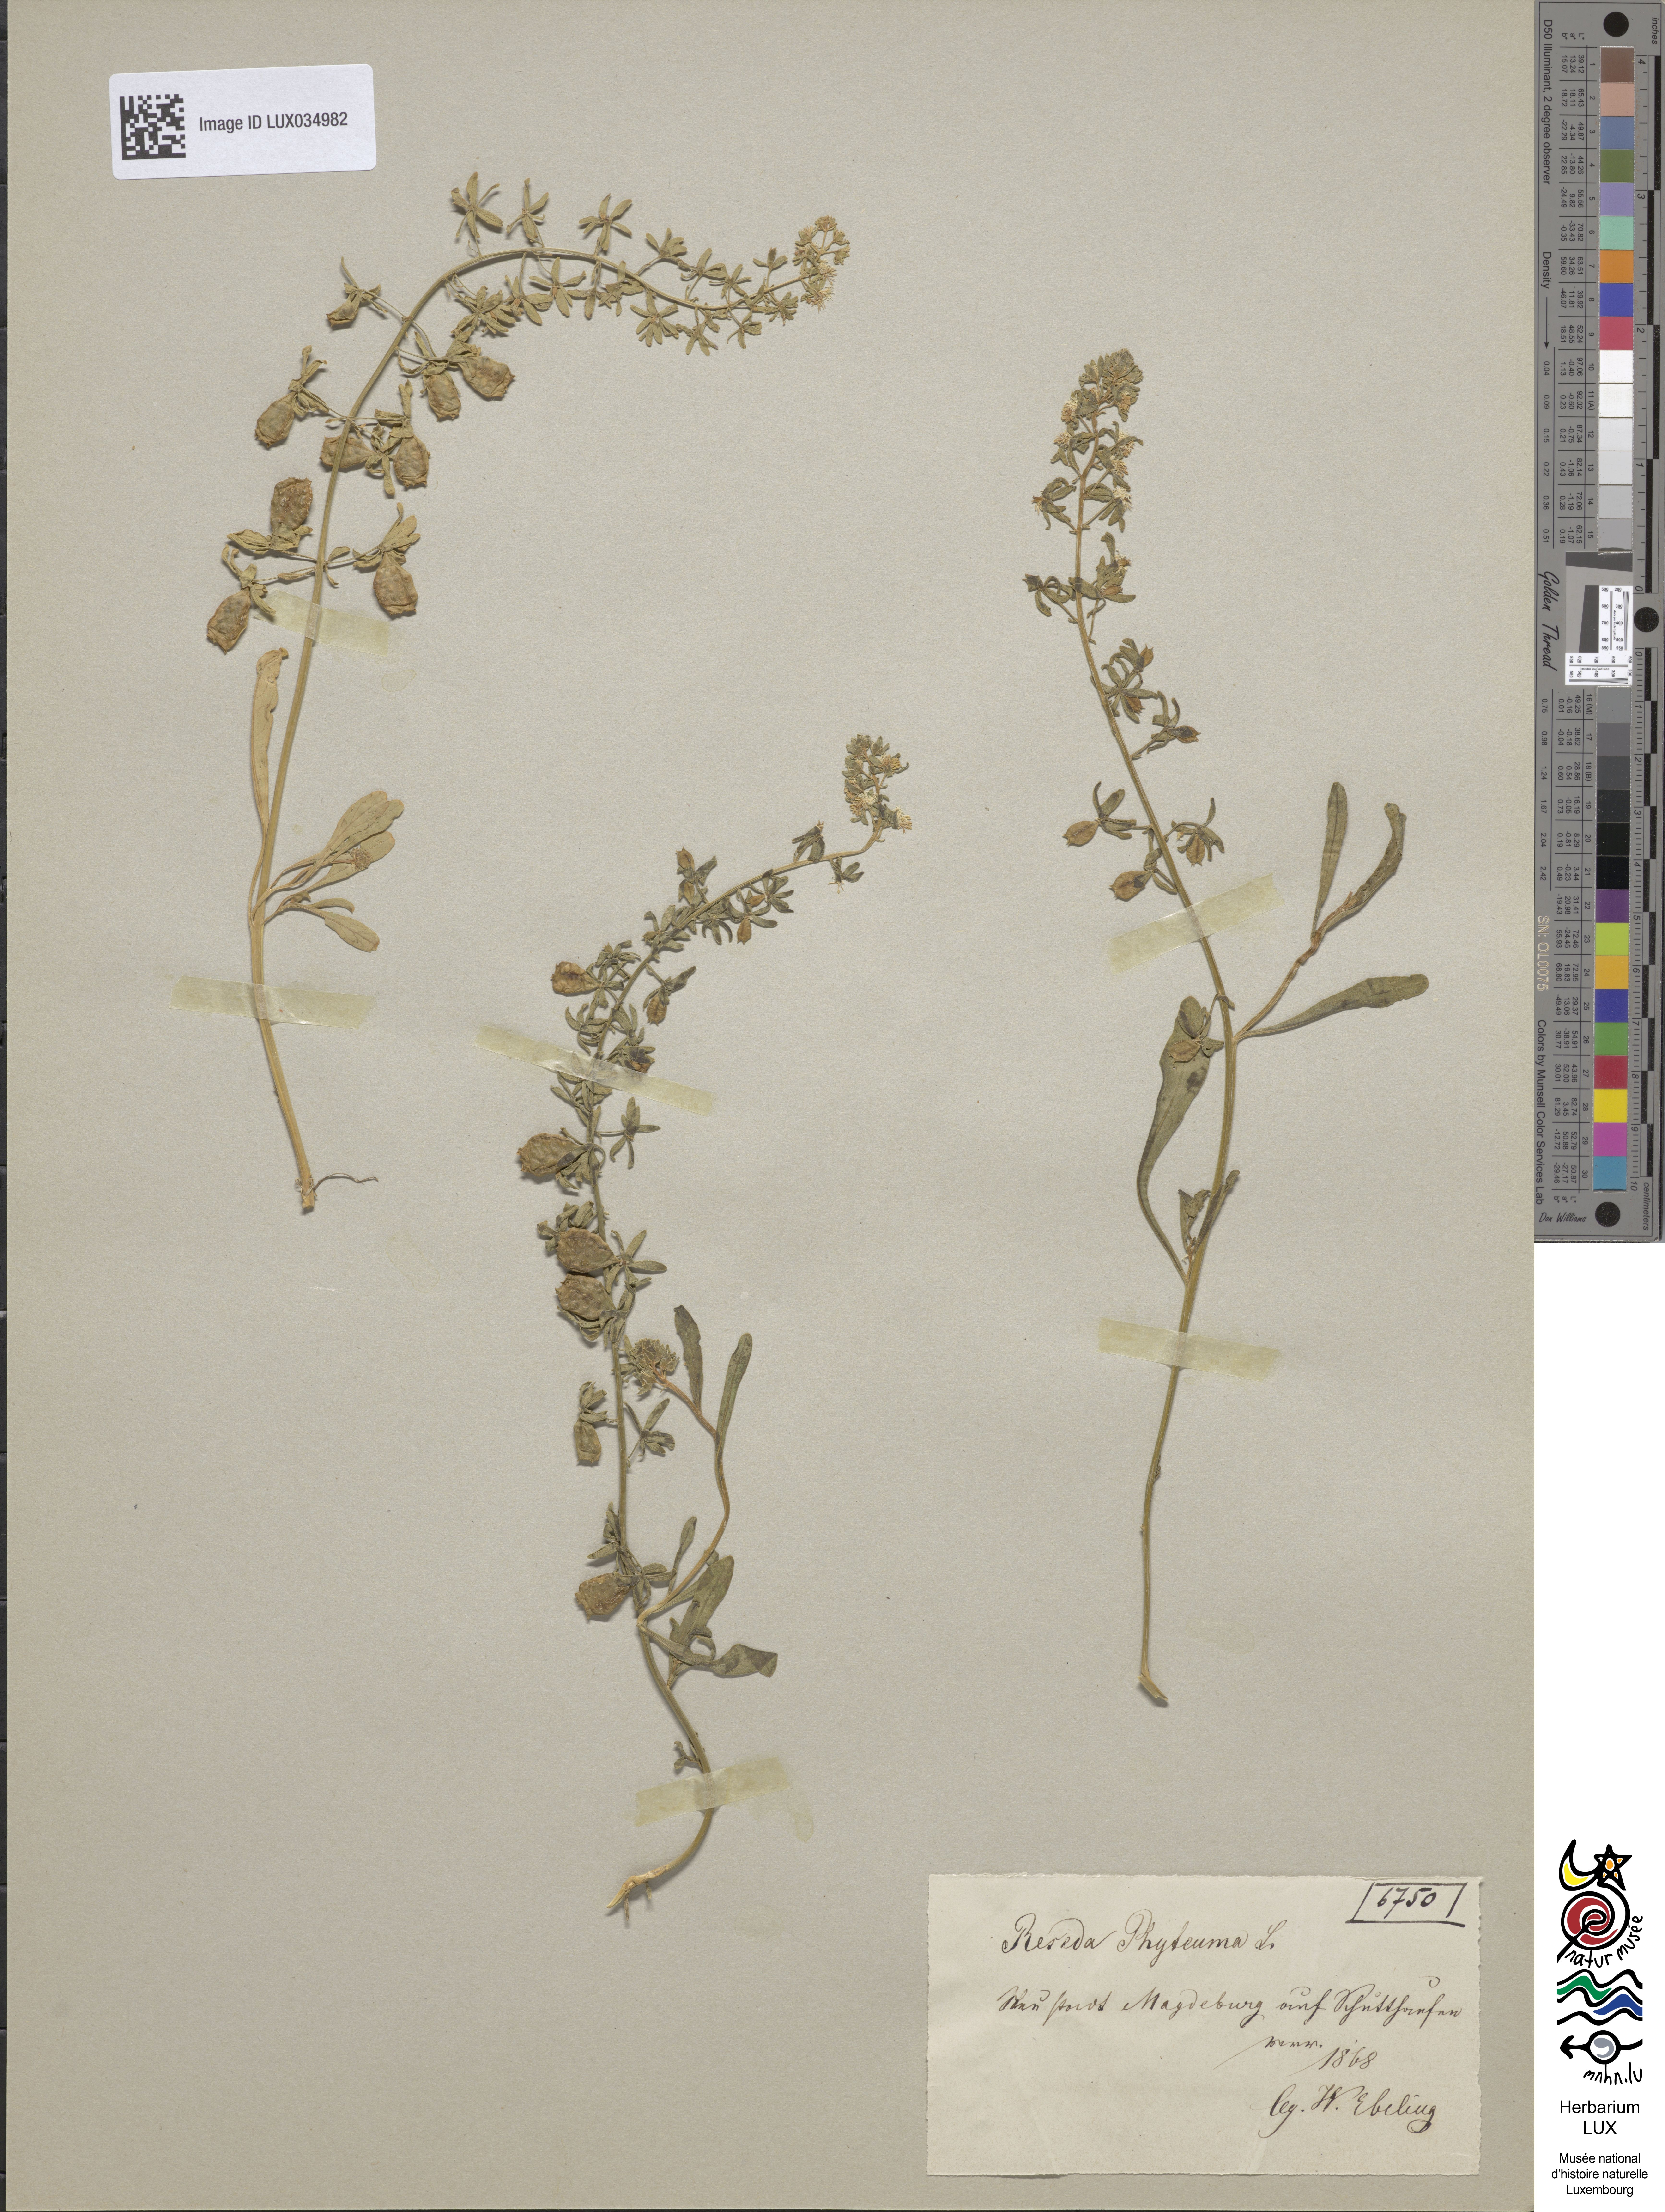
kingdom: Plantae
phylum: Tracheophyta
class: Magnoliopsida
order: Brassicales
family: Resedaceae
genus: Reseda
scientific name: Reseda phyteuma
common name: Corn mignonette
